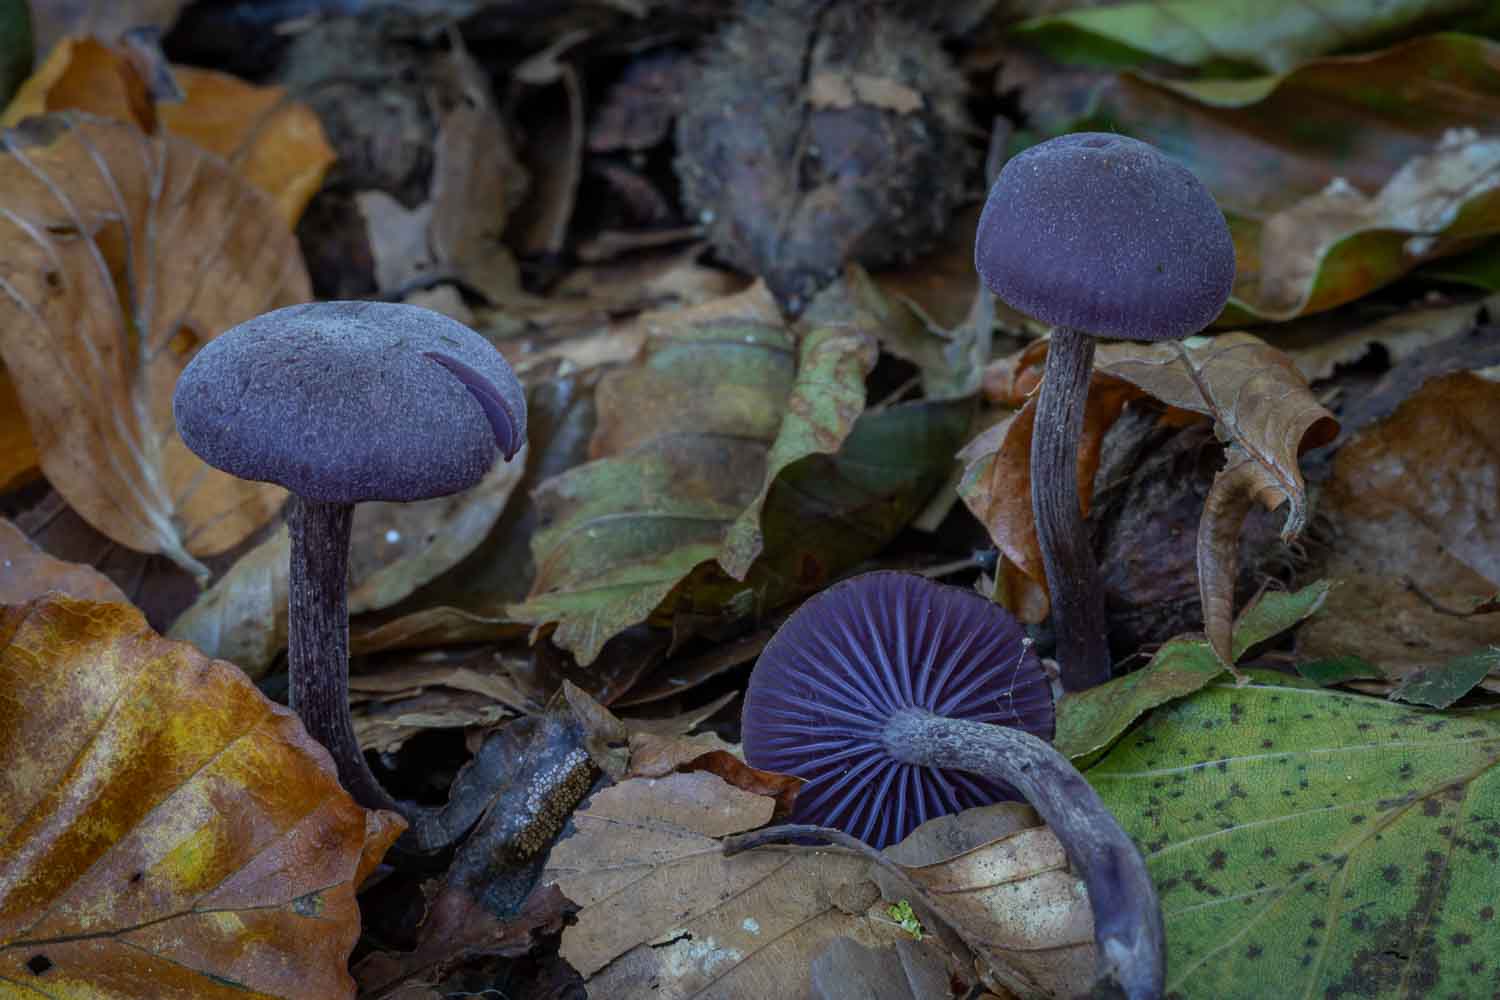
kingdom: Fungi
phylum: Basidiomycota
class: Agaricomycetes
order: Agaricales
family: Hydnangiaceae
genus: Laccaria
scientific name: Laccaria amethystina
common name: violet ametysthat
